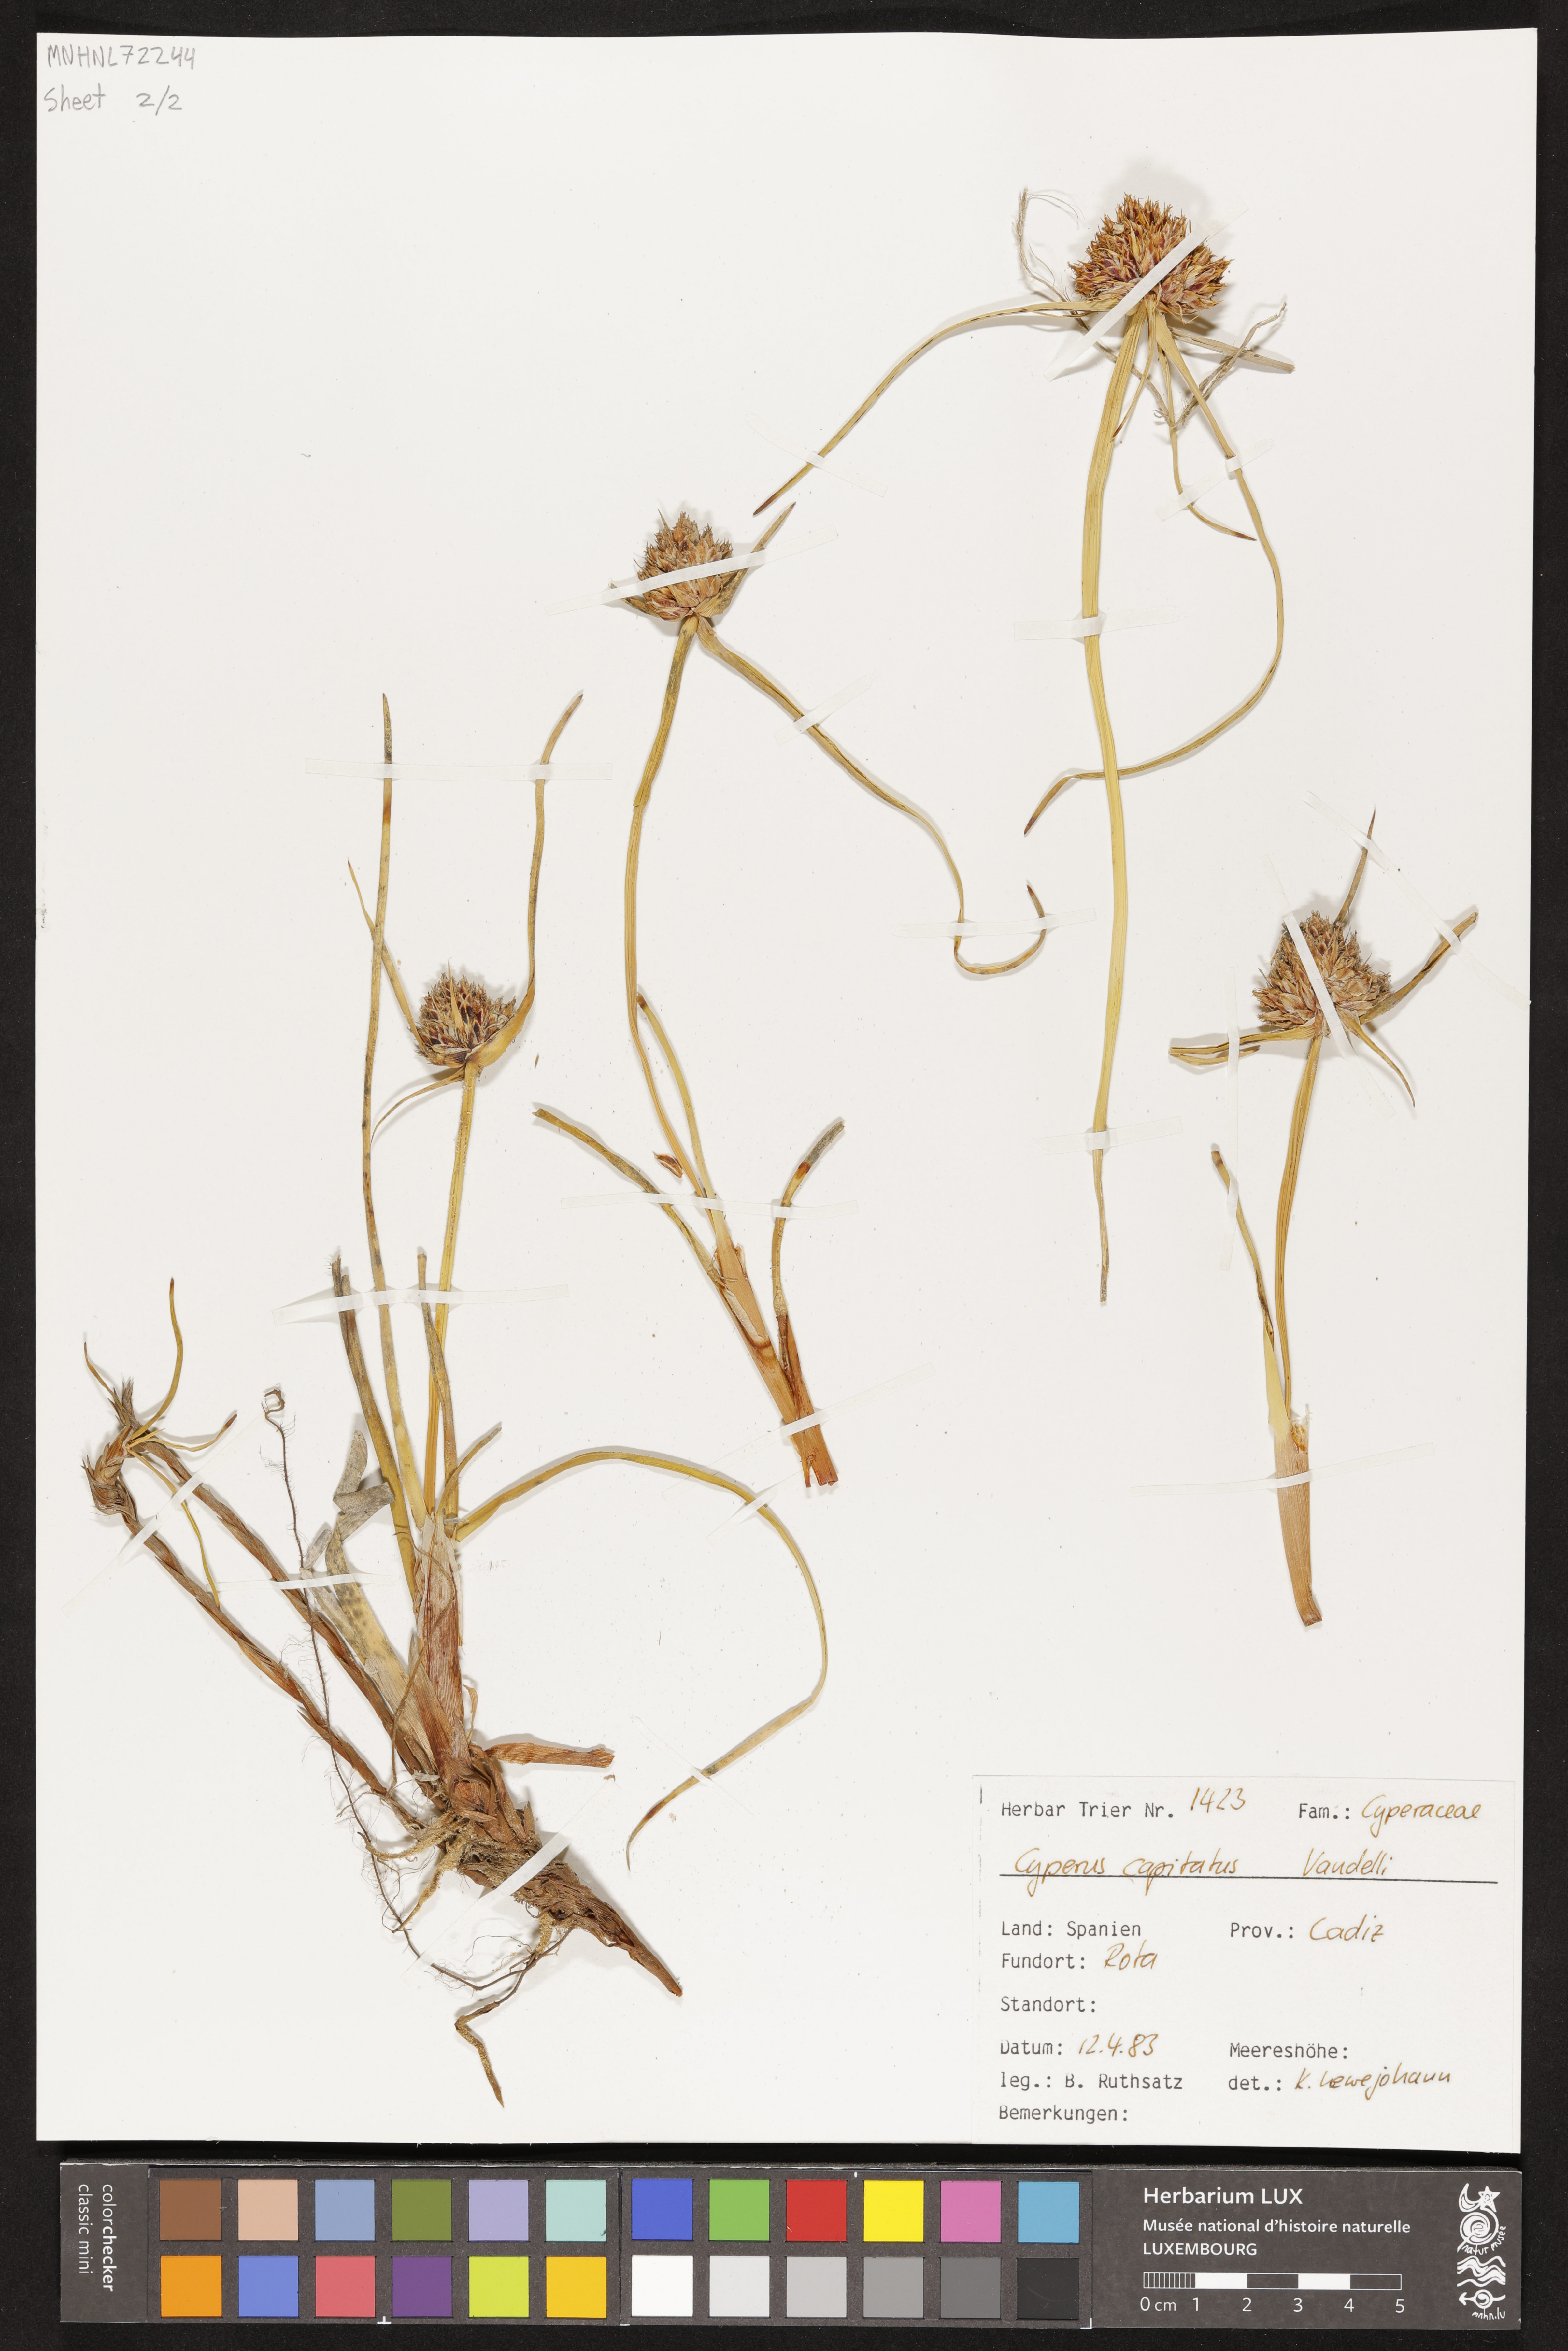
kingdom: Plantae
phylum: Tracheophyta
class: Liliopsida
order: Poales
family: Cyperaceae
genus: Cyperus
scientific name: Cyperus capitatus
